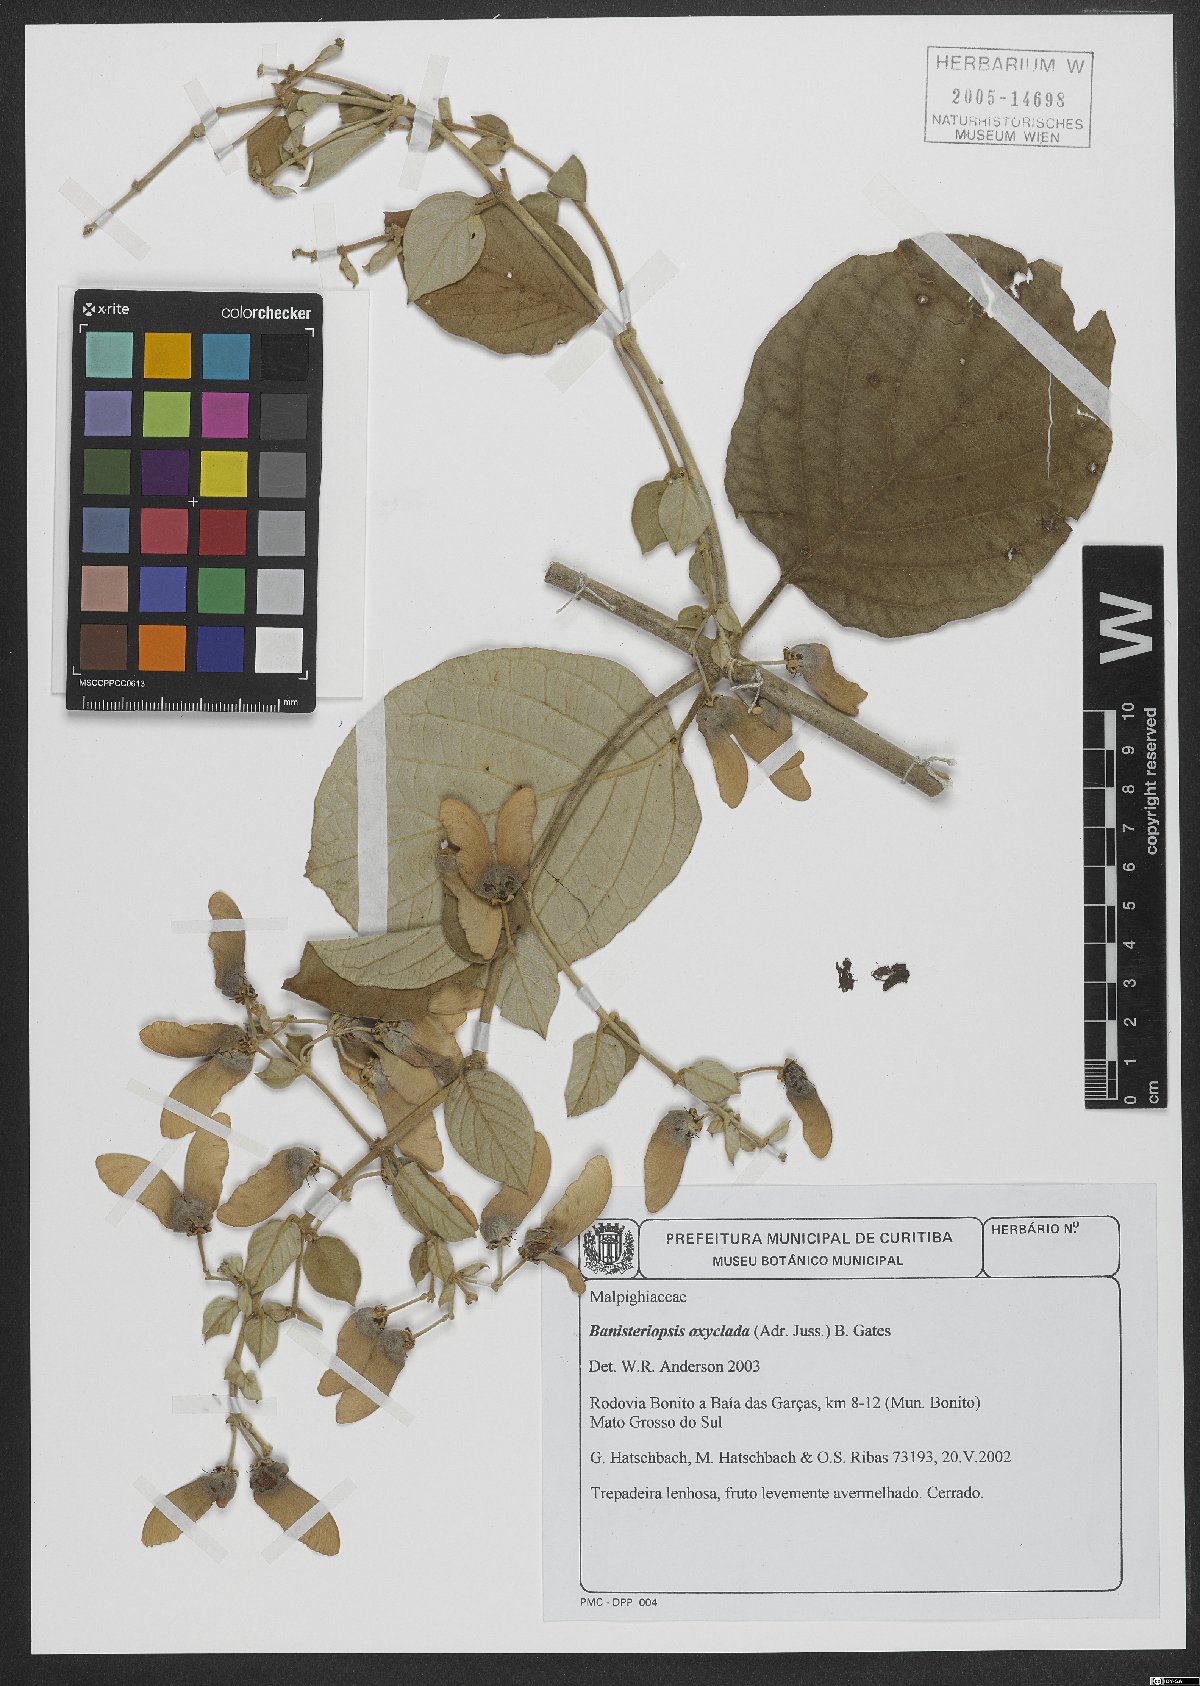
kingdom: Plantae
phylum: Tracheophyta
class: Magnoliopsida
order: Malpighiales
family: Malpighiaceae
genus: Banisteriopsis
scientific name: Banisteriopsis oxyclada
